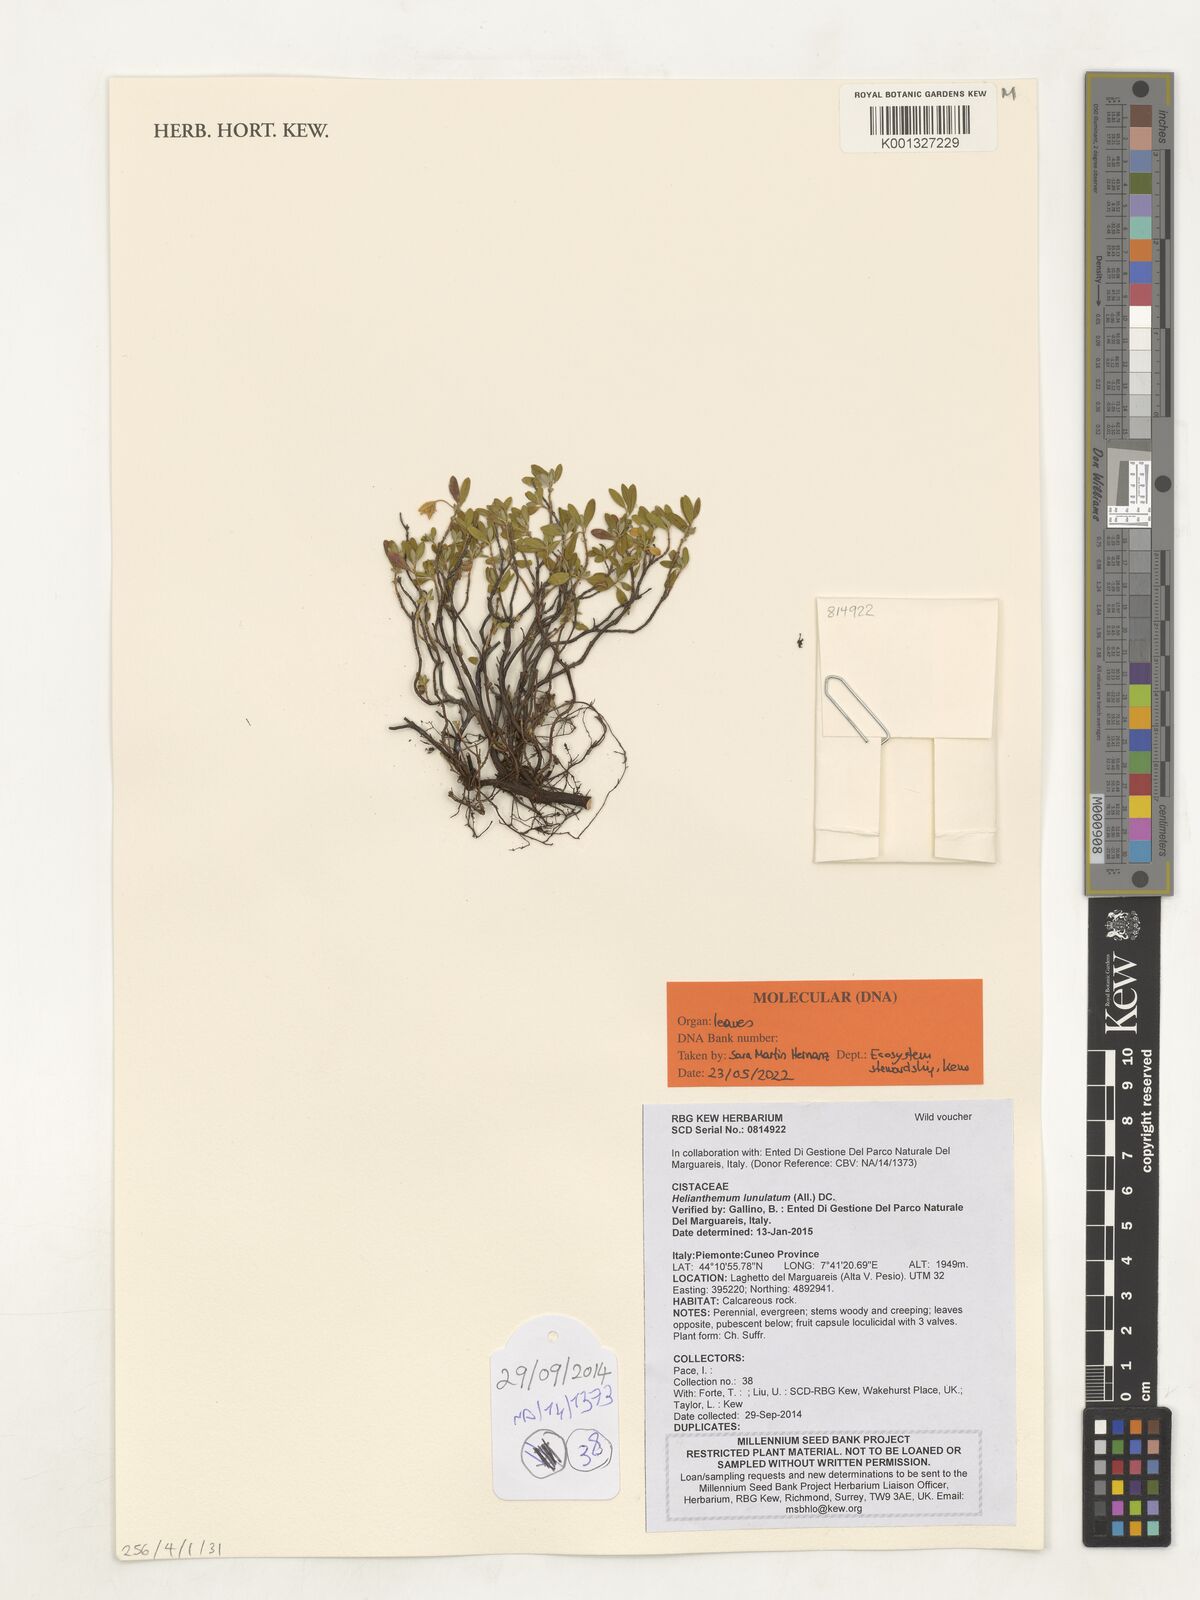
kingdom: Plantae
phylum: Tracheophyta
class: Magnoliopsida
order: Malvales
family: Cistaceae
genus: Helianthemum
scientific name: Helianthemum lunulatum
